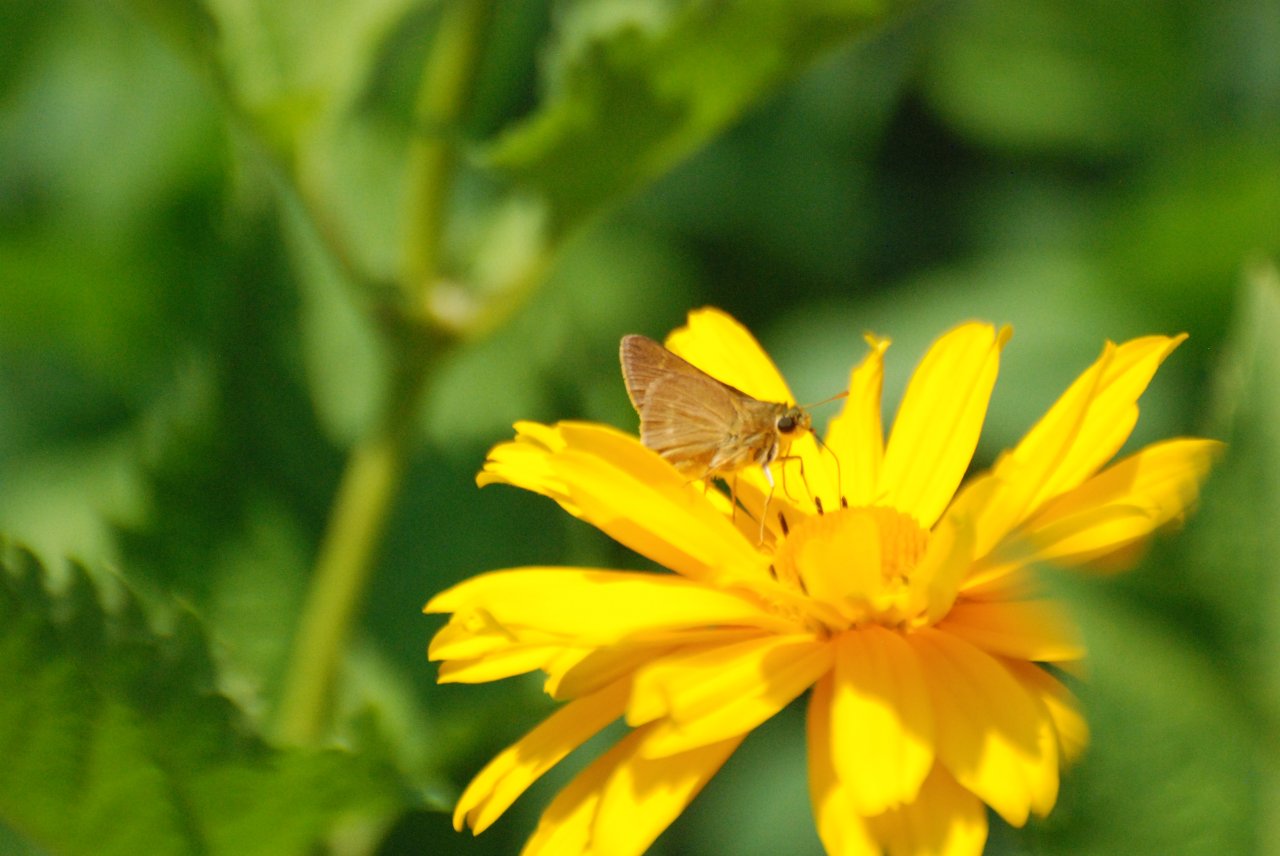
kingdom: Animalia
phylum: Arthropoda
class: Insecta
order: Lepidoptera
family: Hesperiidae
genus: Polites
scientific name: Polites
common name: Crossline Skipper
